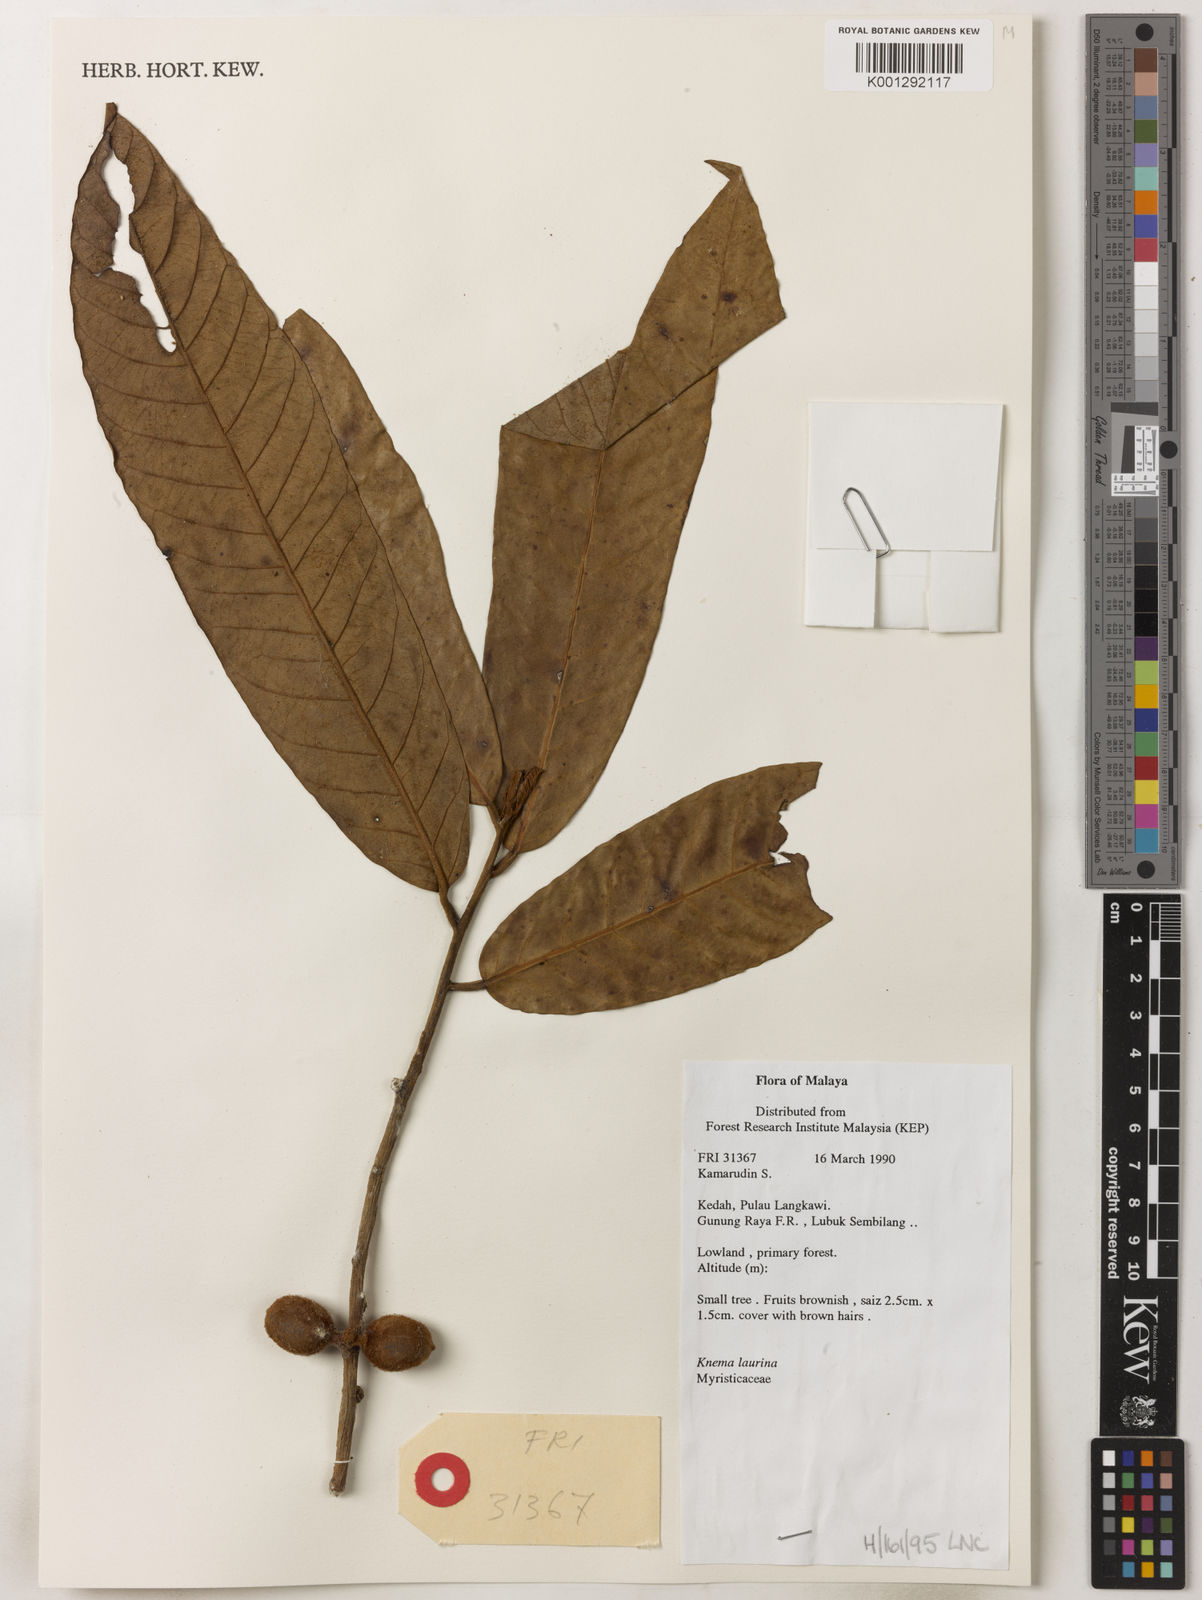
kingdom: Plantae
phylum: Tracheophyta
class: Magnoliopsida
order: Magnoliales
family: Myristicaceae
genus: Knema
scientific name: Knema laurina
